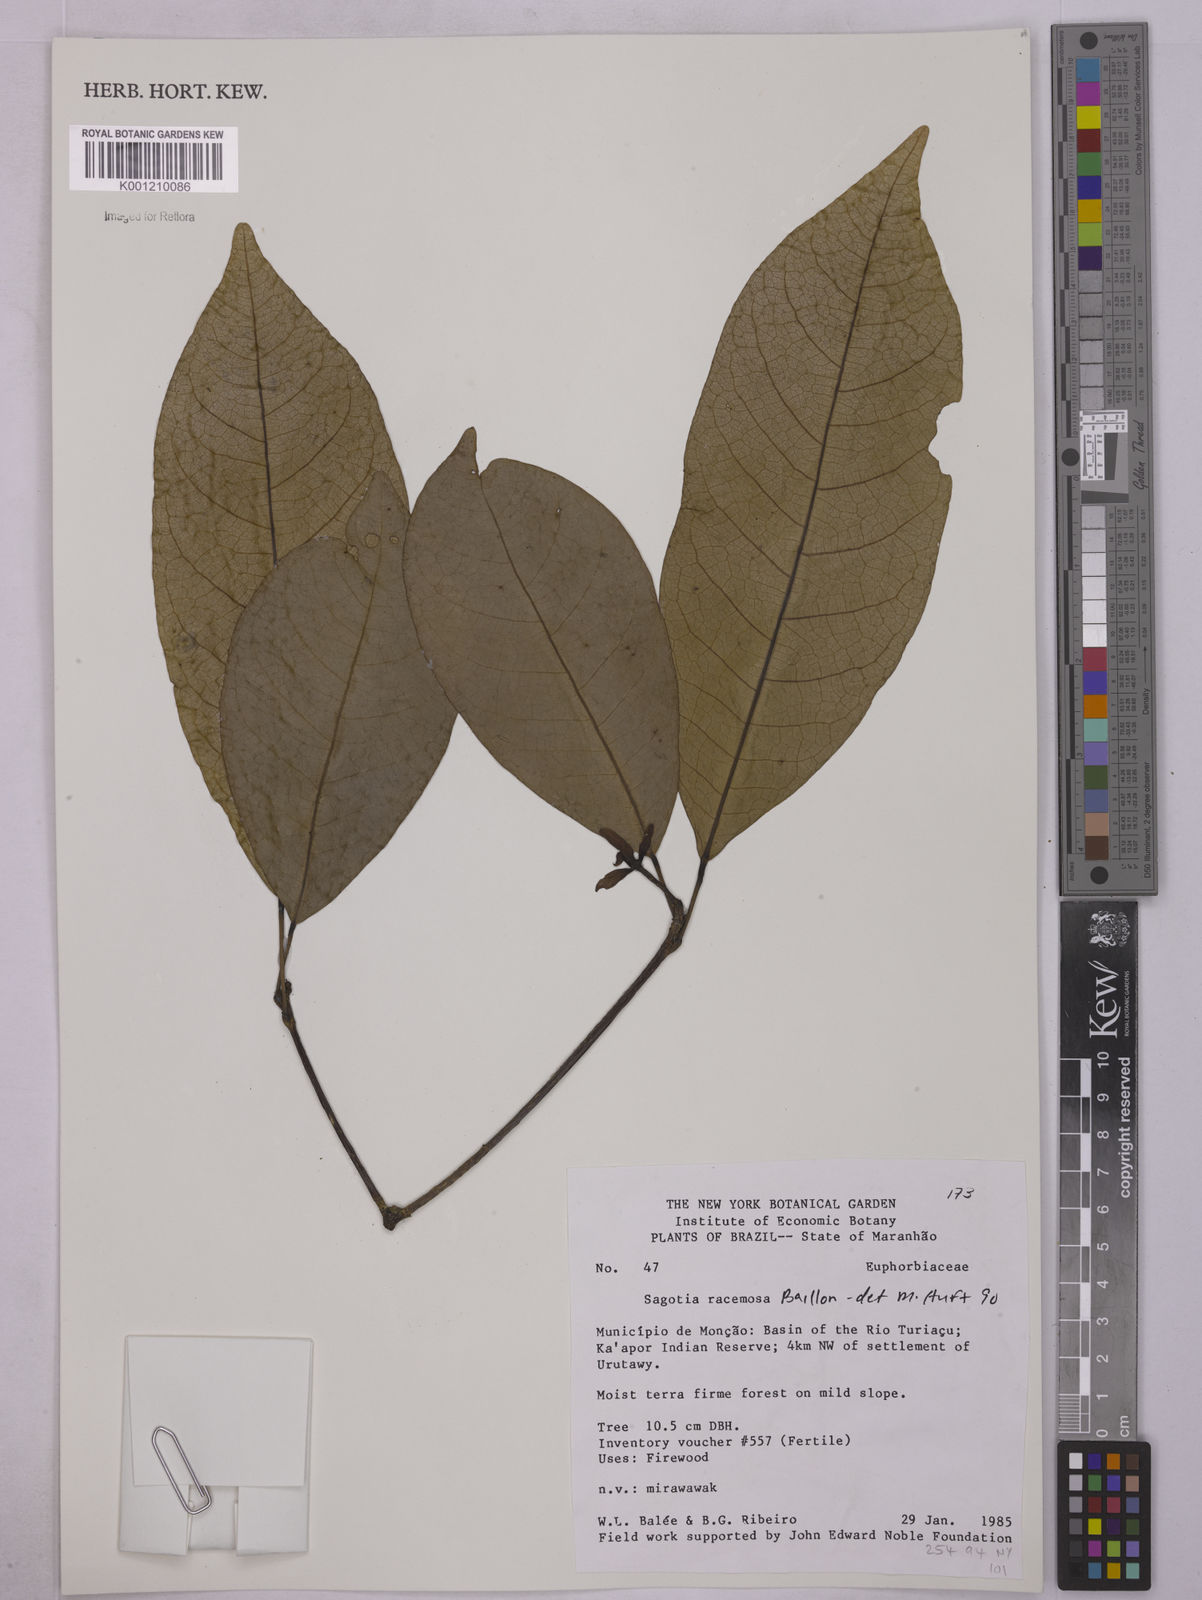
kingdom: Plantae
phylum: Tracheophyta
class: Magnoliopsida
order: Malpighiales
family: Euphorbiaceae
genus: Sagotia
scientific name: Sagotia racemosa
